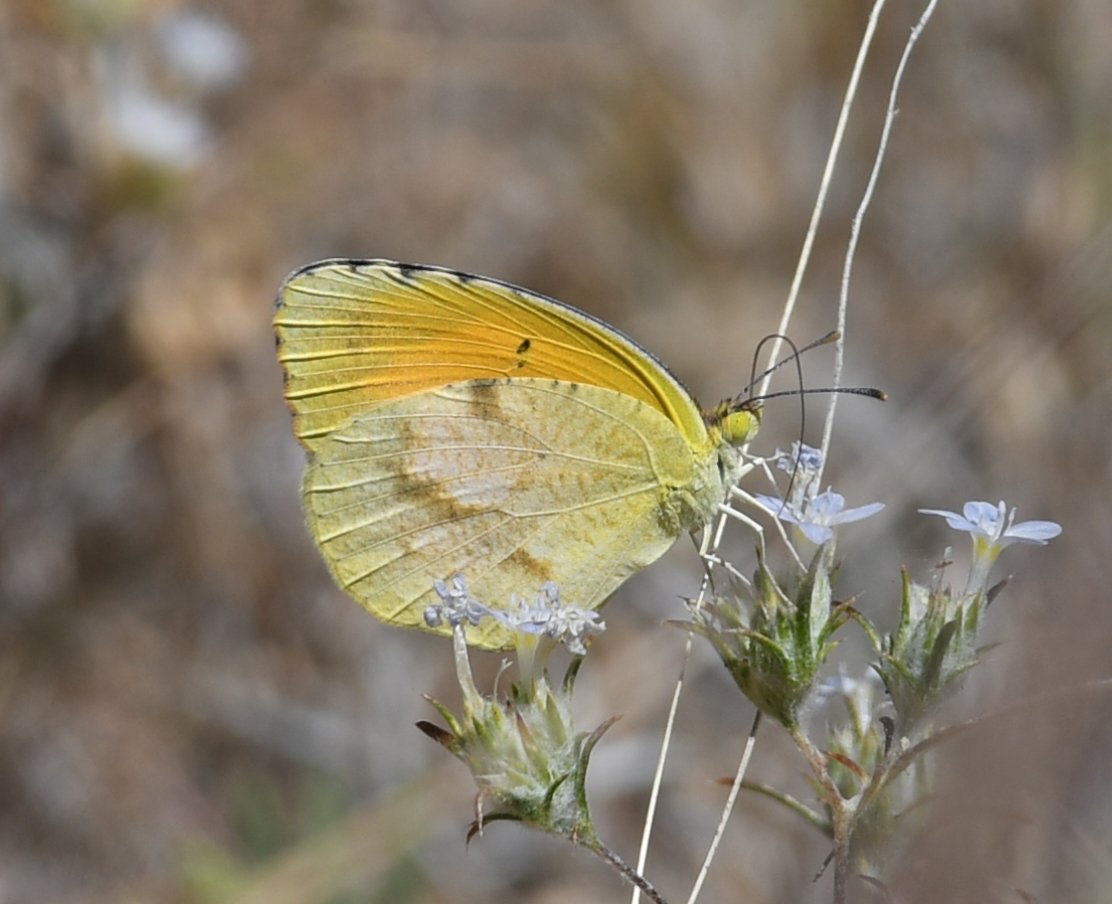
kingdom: Animalia
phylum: Arthropoda
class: Insecta
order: Lepidoptera
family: Pieridae
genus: Abaeis
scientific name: Abaeis nicippe
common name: Sleepy Orange
